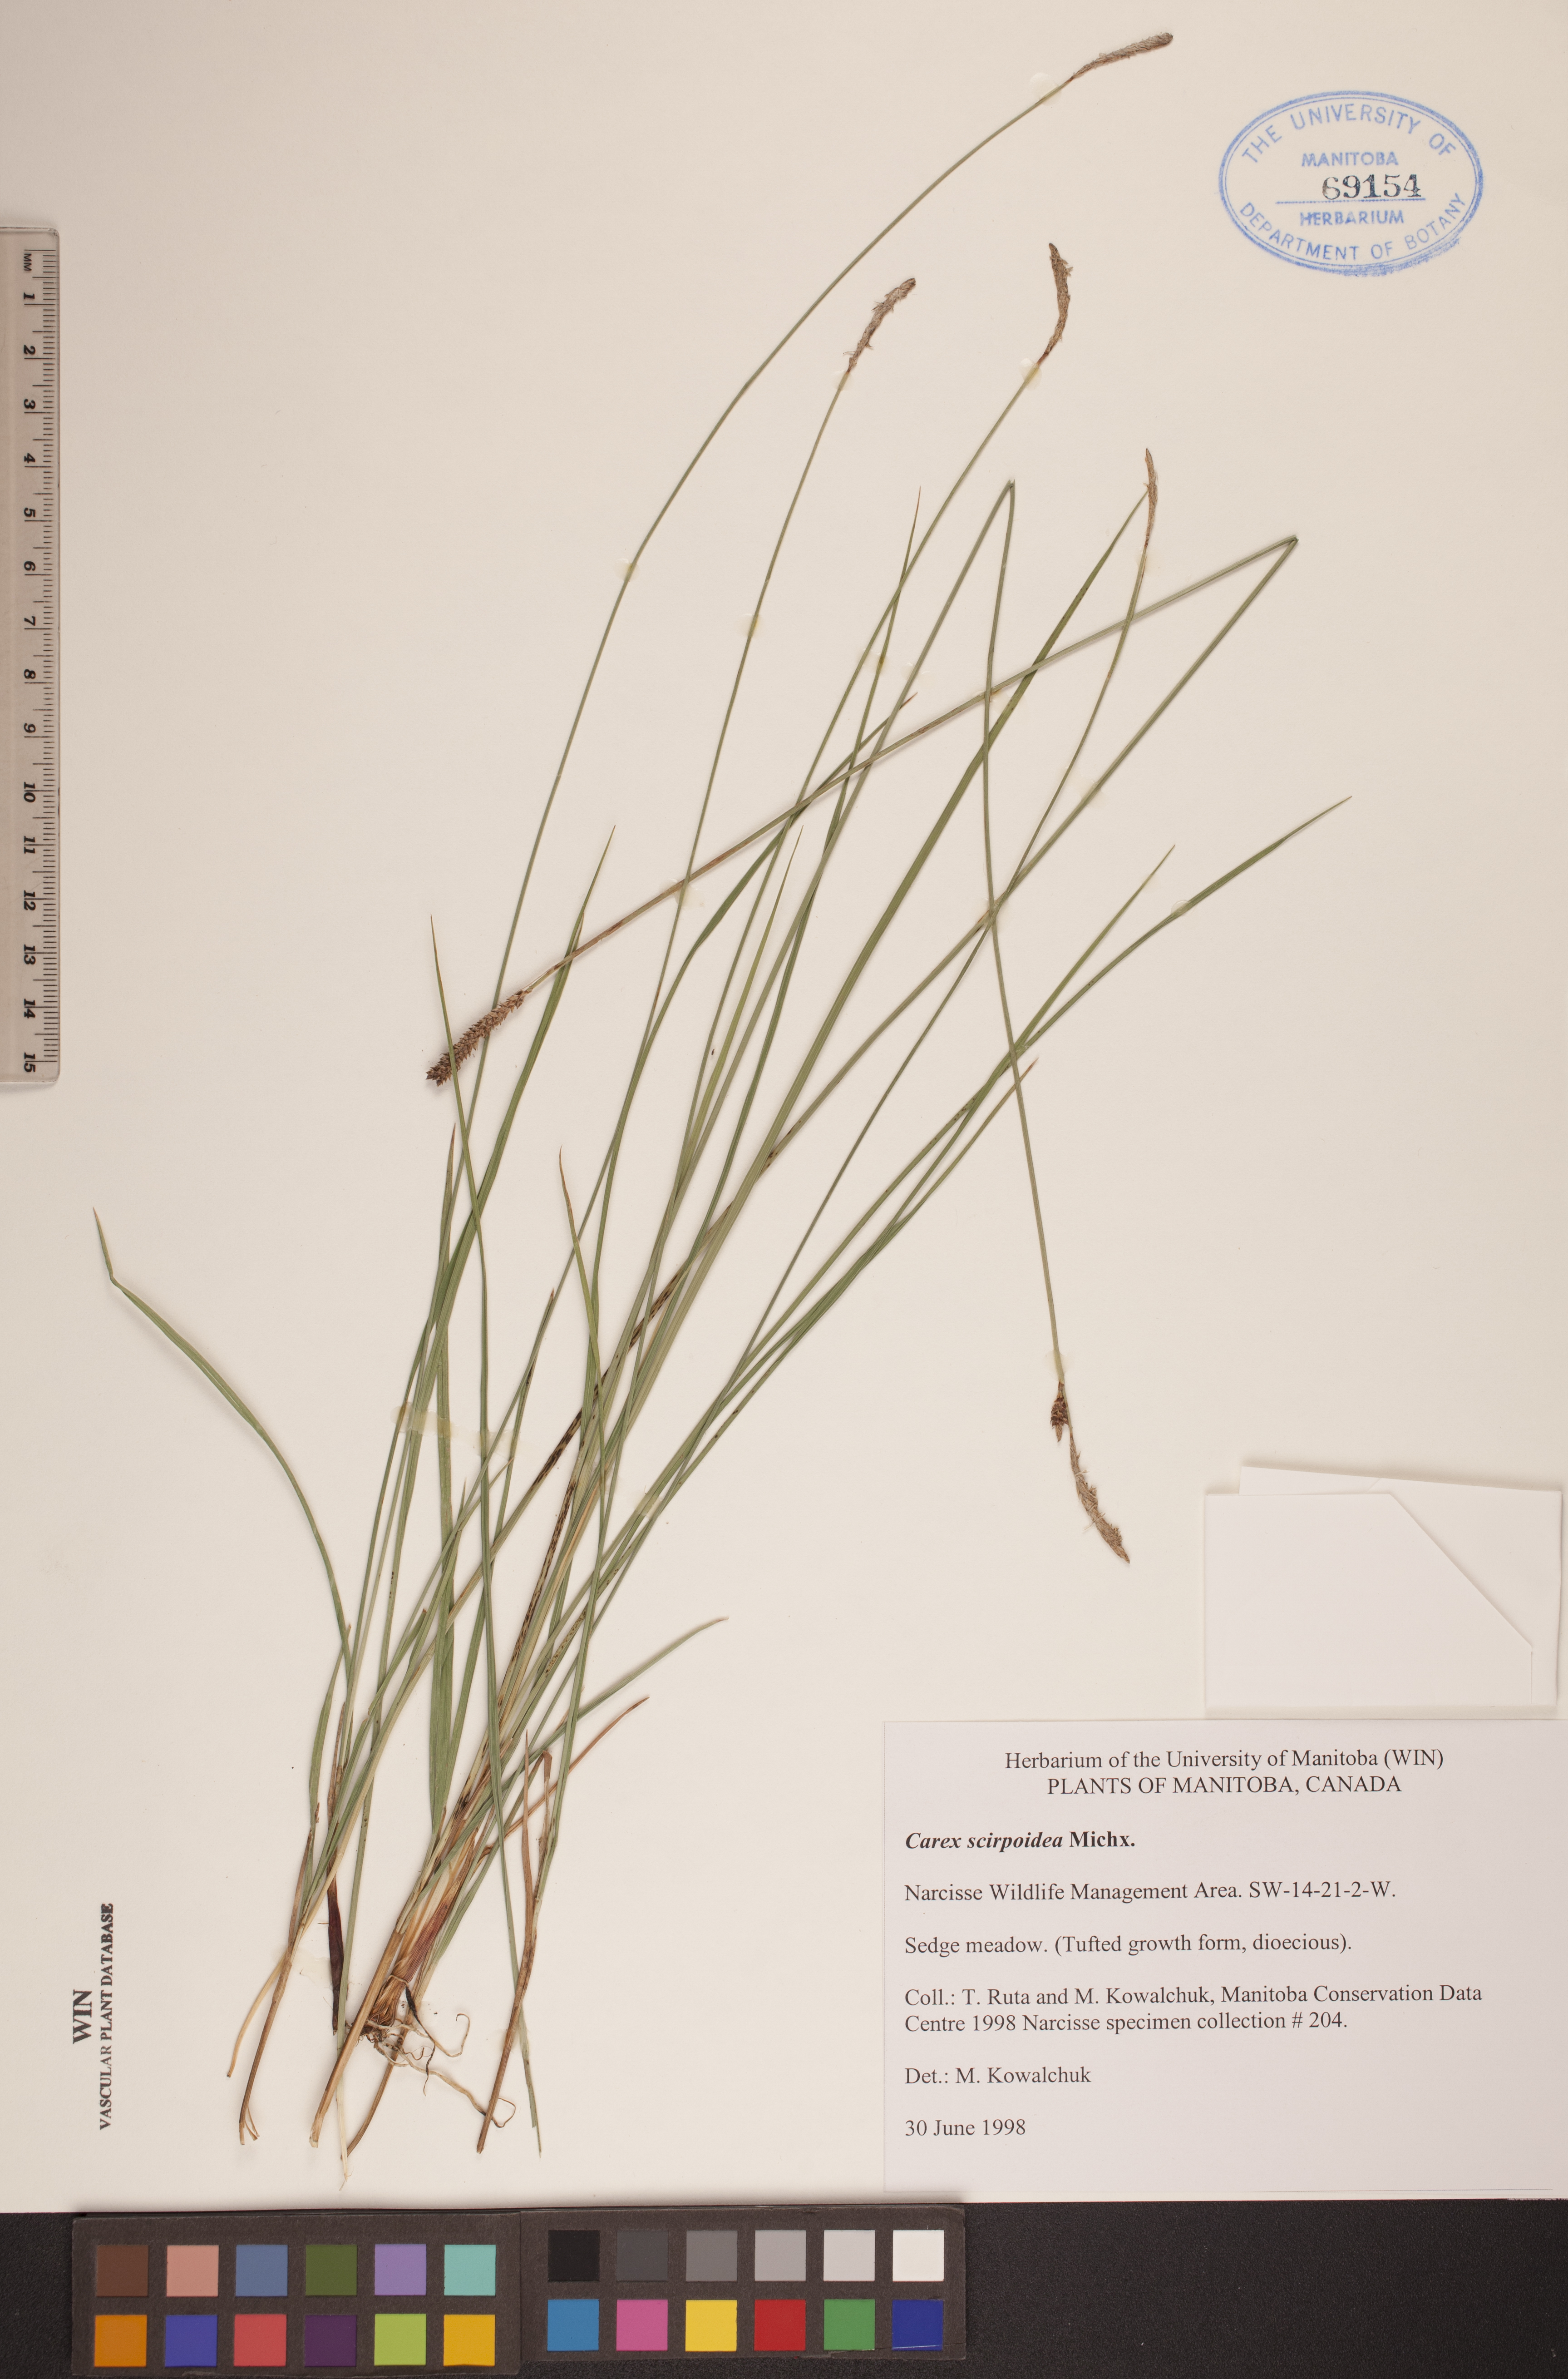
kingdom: Plantae
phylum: Tracheophyta
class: Liliopsida
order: Poales
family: Cyperaceae
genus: Carex
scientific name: Carex scirpoidea
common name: Canada single-spike sedge
